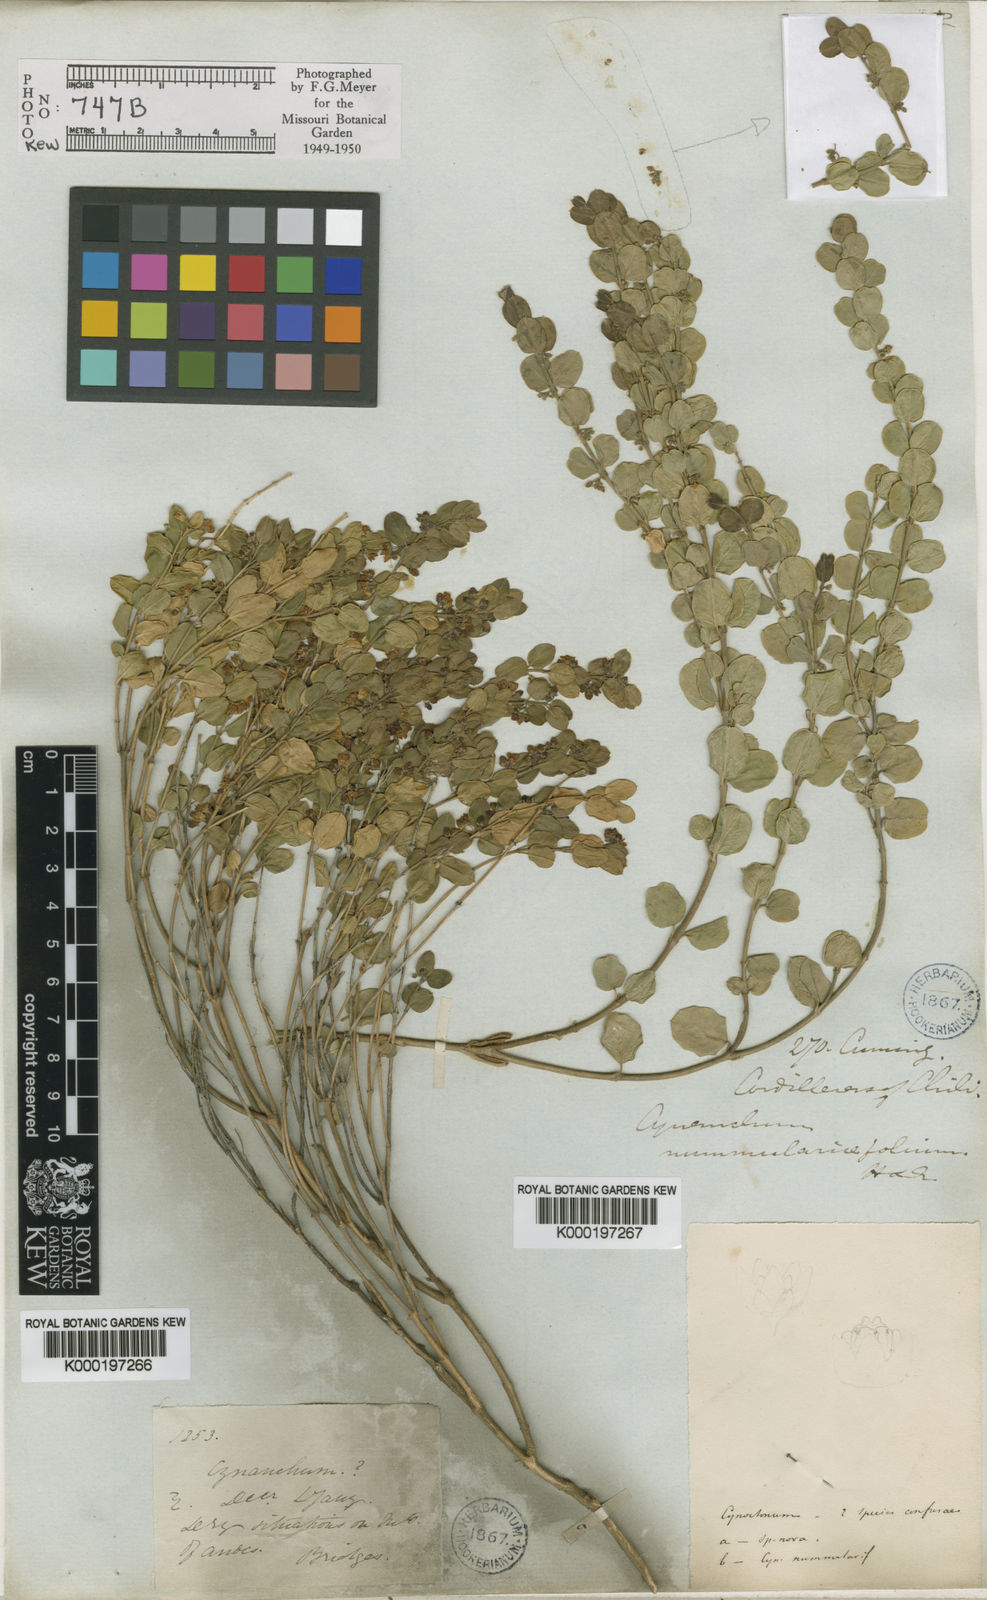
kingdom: Plantae
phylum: Tracheophyta
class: Magnoliopsida
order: Gentianales
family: Apocynaceae
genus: Diplolepis
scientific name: Diplolepis nummulariifolia
